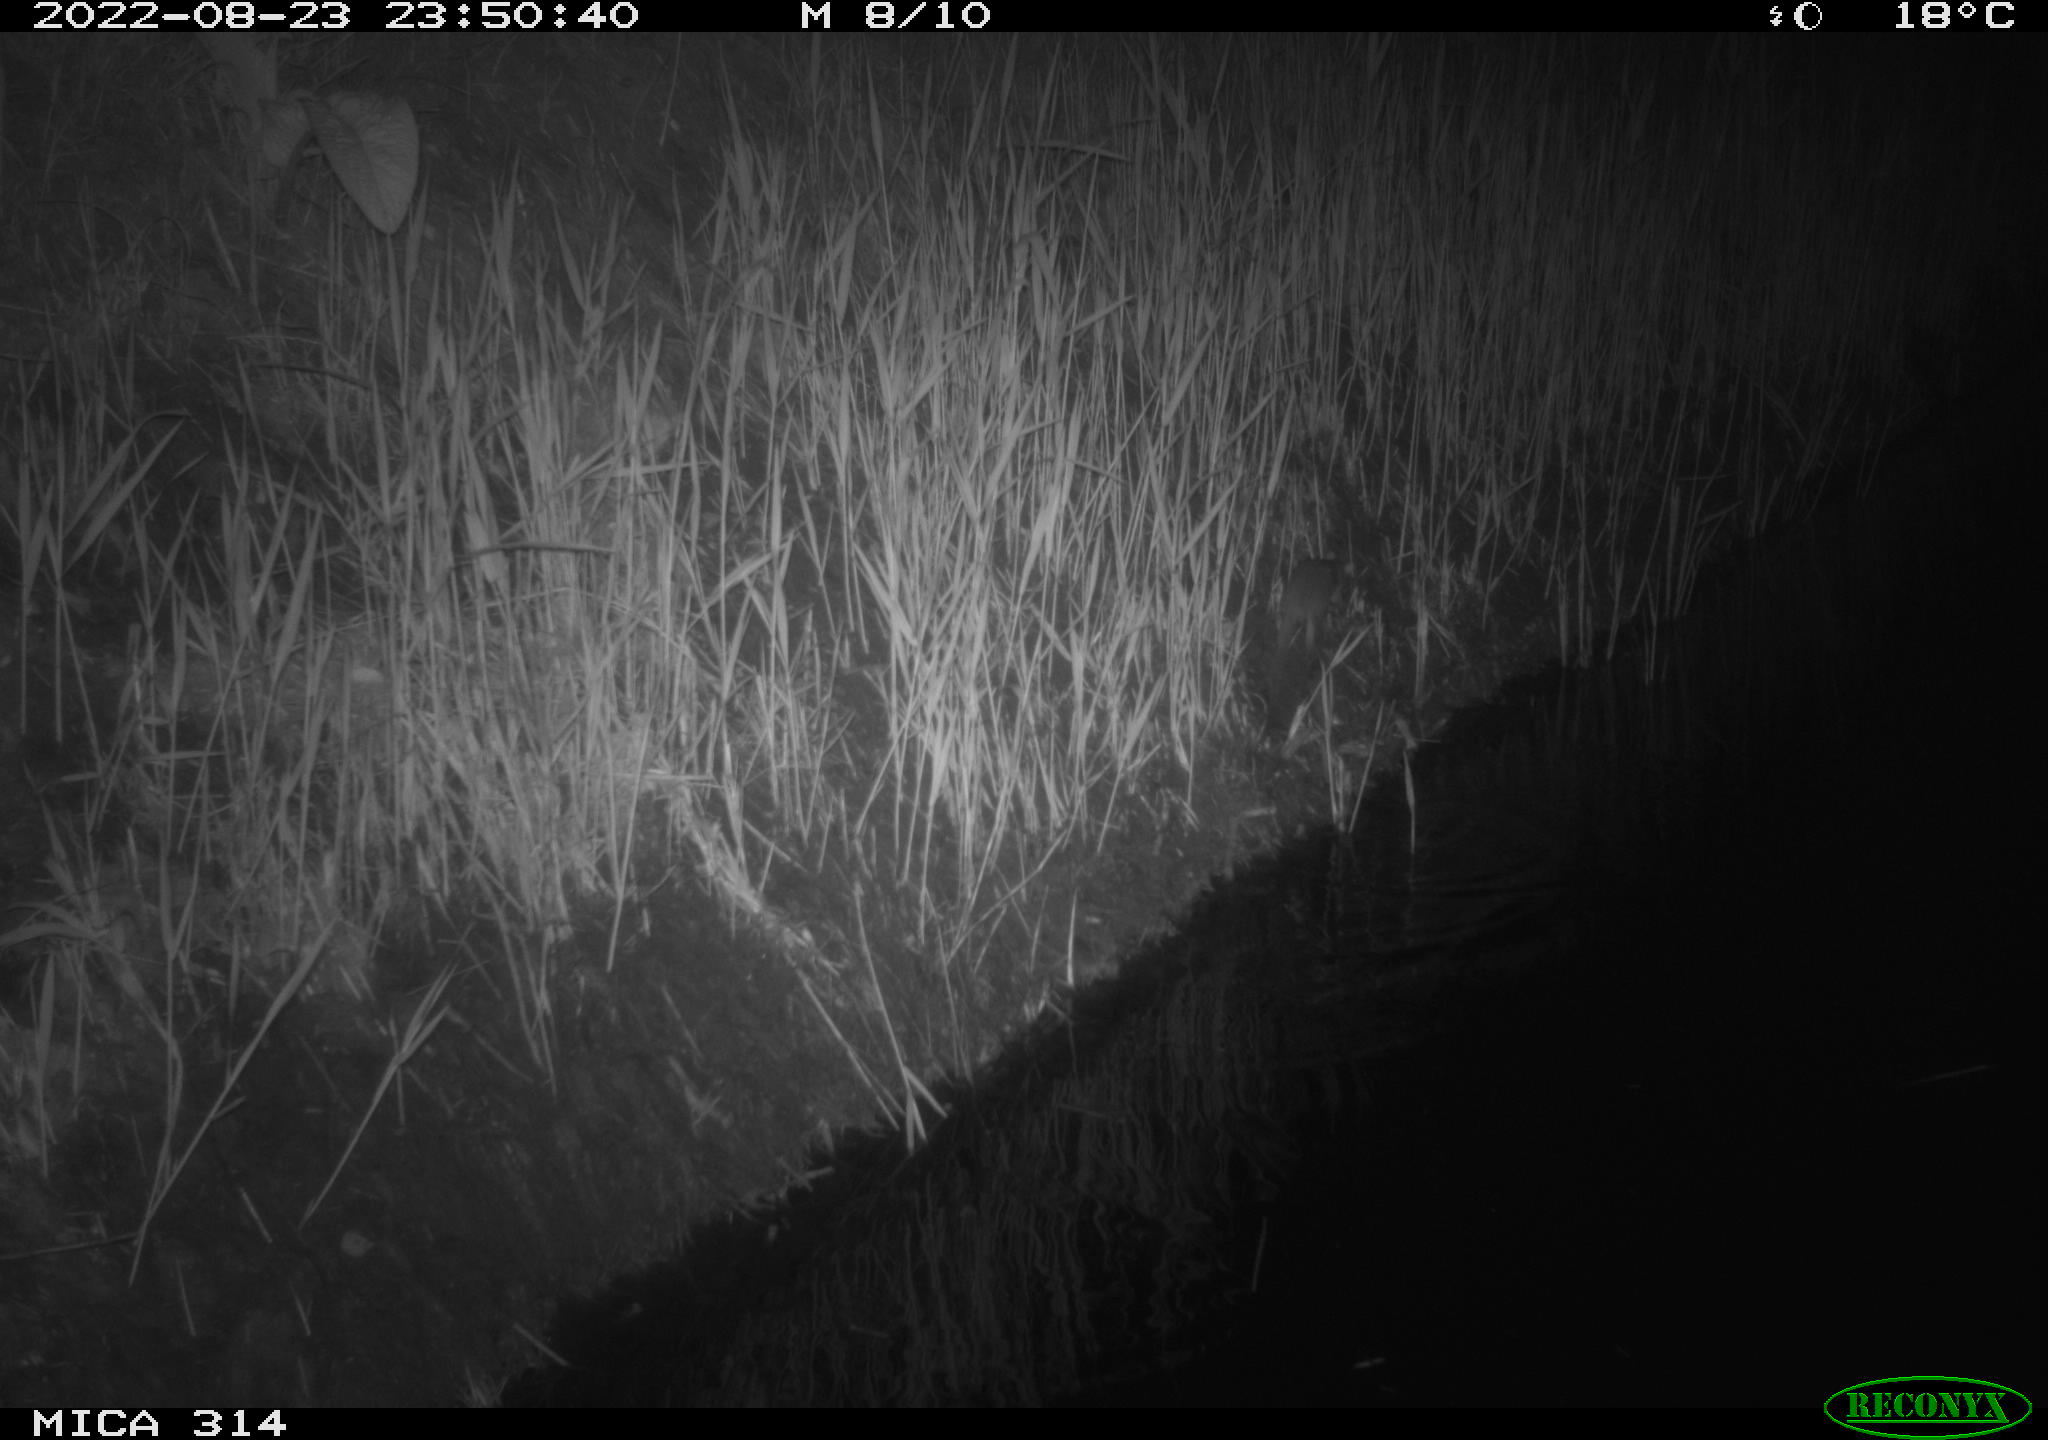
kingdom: Animalia
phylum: Chordata
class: Mammalia
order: Rodentia
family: Muridae
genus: Rattus
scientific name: Rattus norvegicus
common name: Brown rat
